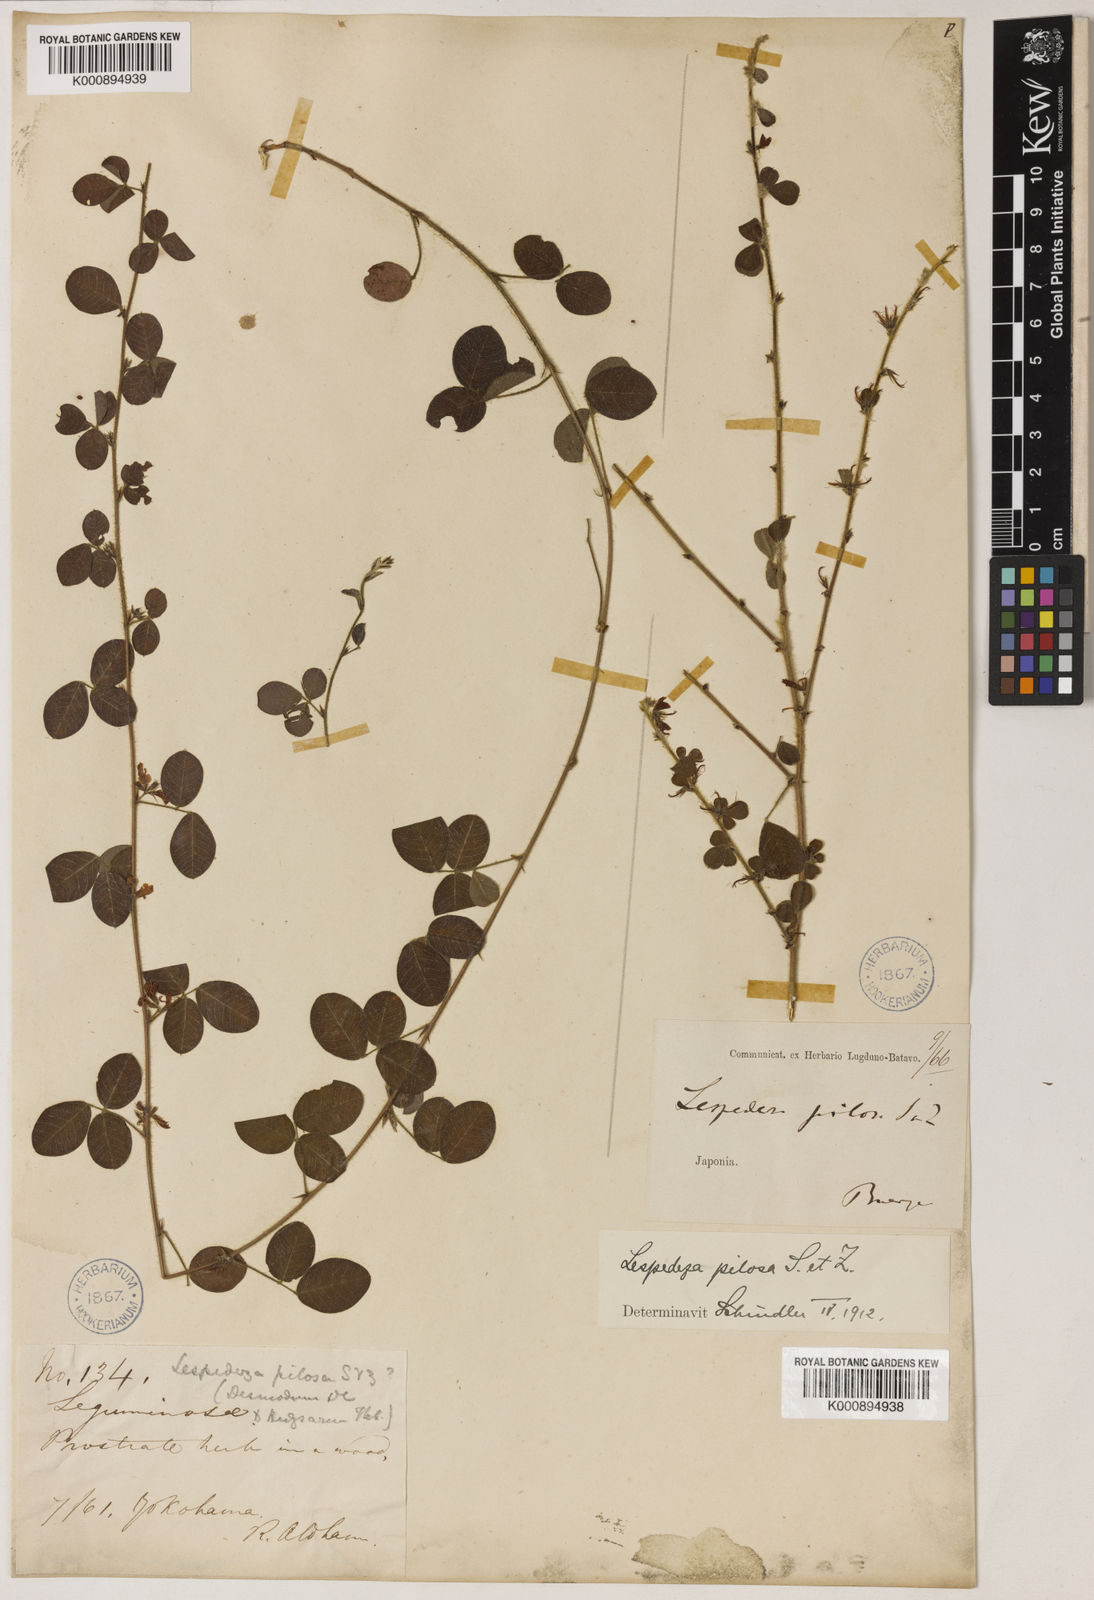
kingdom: Plantae
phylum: Tracheophyta
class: Magnoliopsida
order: Fabales
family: Fabaceae
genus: Lespedeza
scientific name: Lespedeza pilosa
